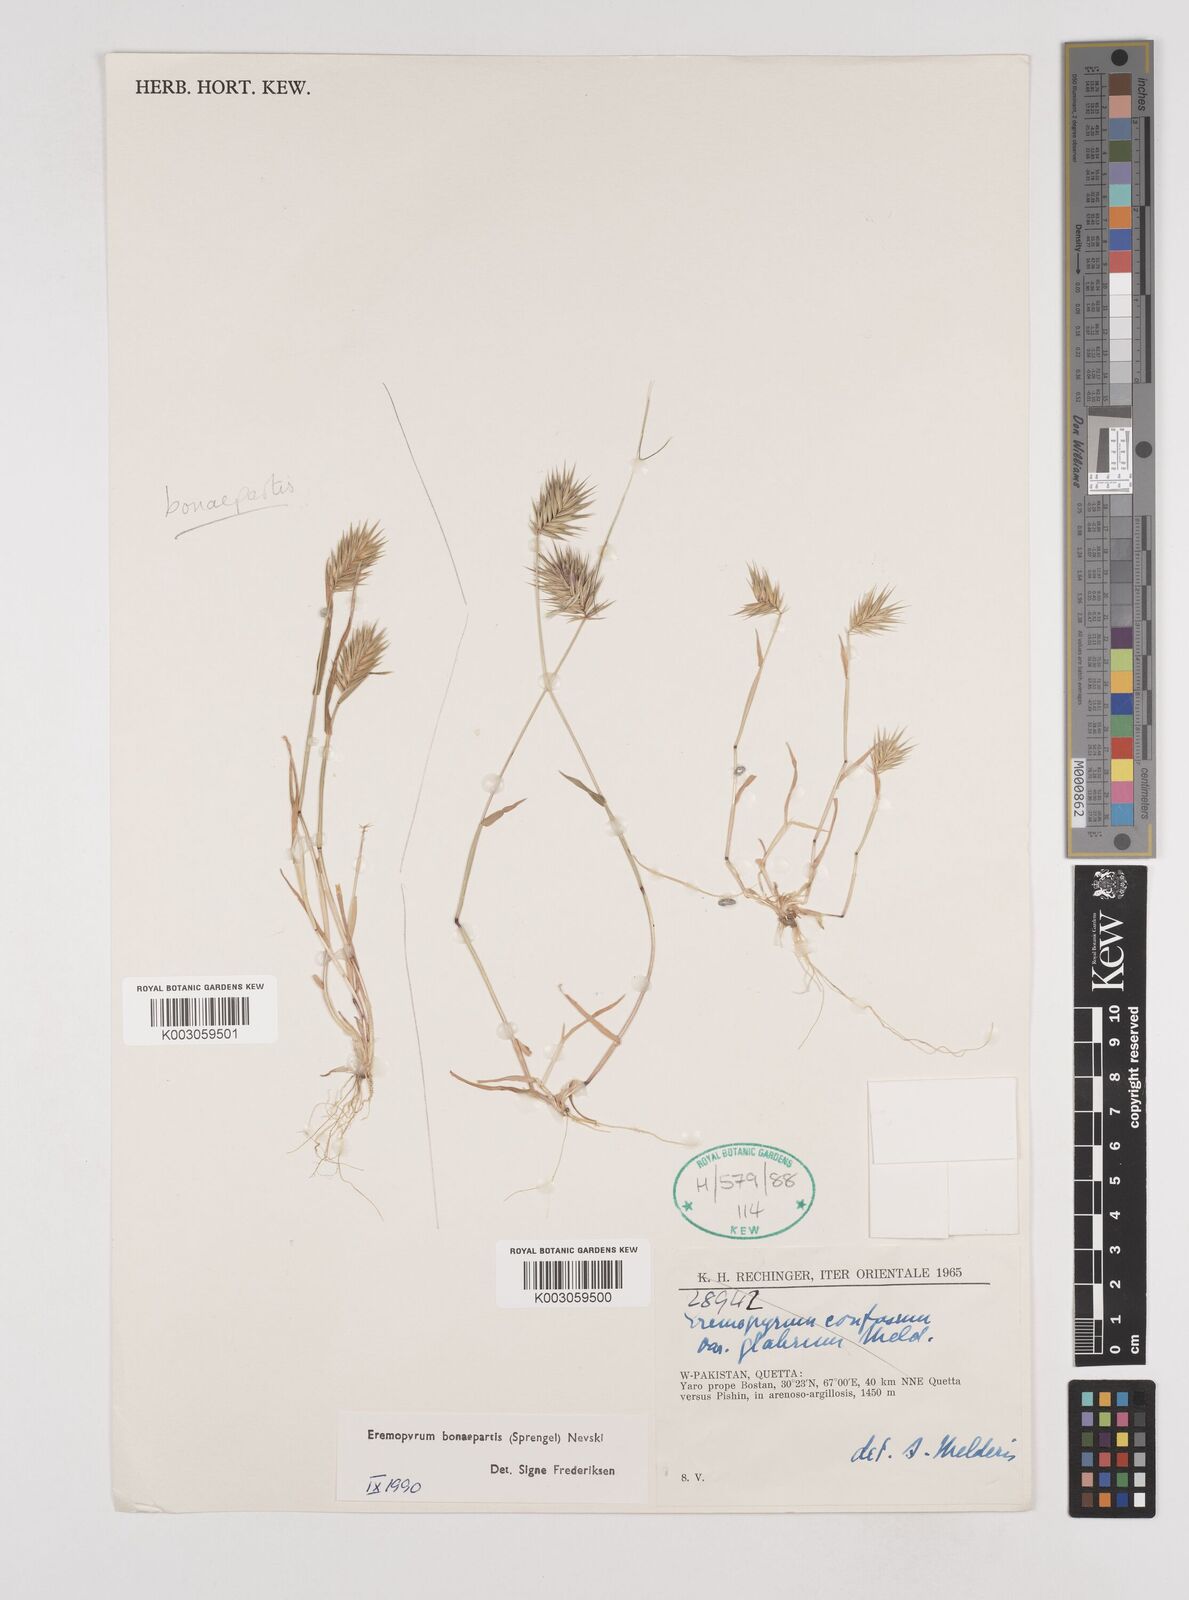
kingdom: Plantae
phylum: Tracheophyta
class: Liliopsida
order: Poales
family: Poaceae
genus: Eremopyrum
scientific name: Eremopyrum bonaepartis
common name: Tapertip false wheatgrass
